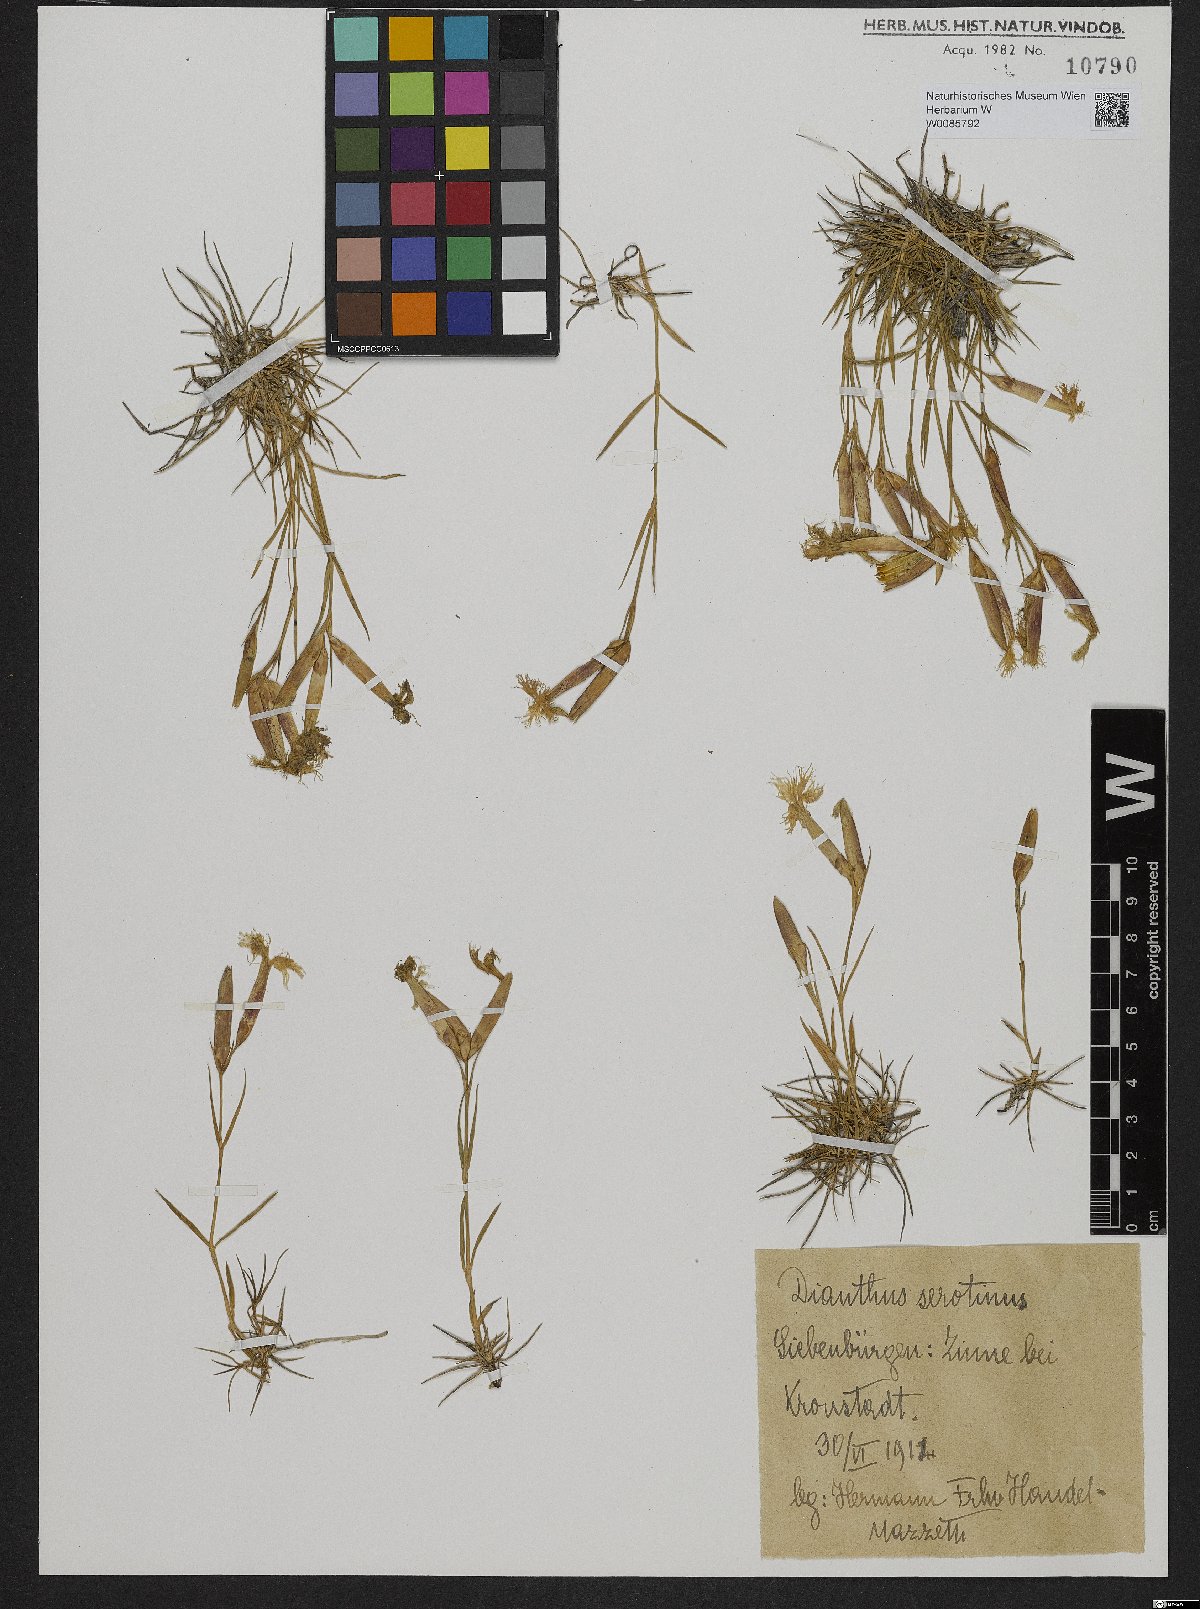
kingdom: Plantae
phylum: Tracheophyta
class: Magnoliopsida
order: Caryophyllales
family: Caryophyllaceae
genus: Dianthus
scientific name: Dianthus serotinus
